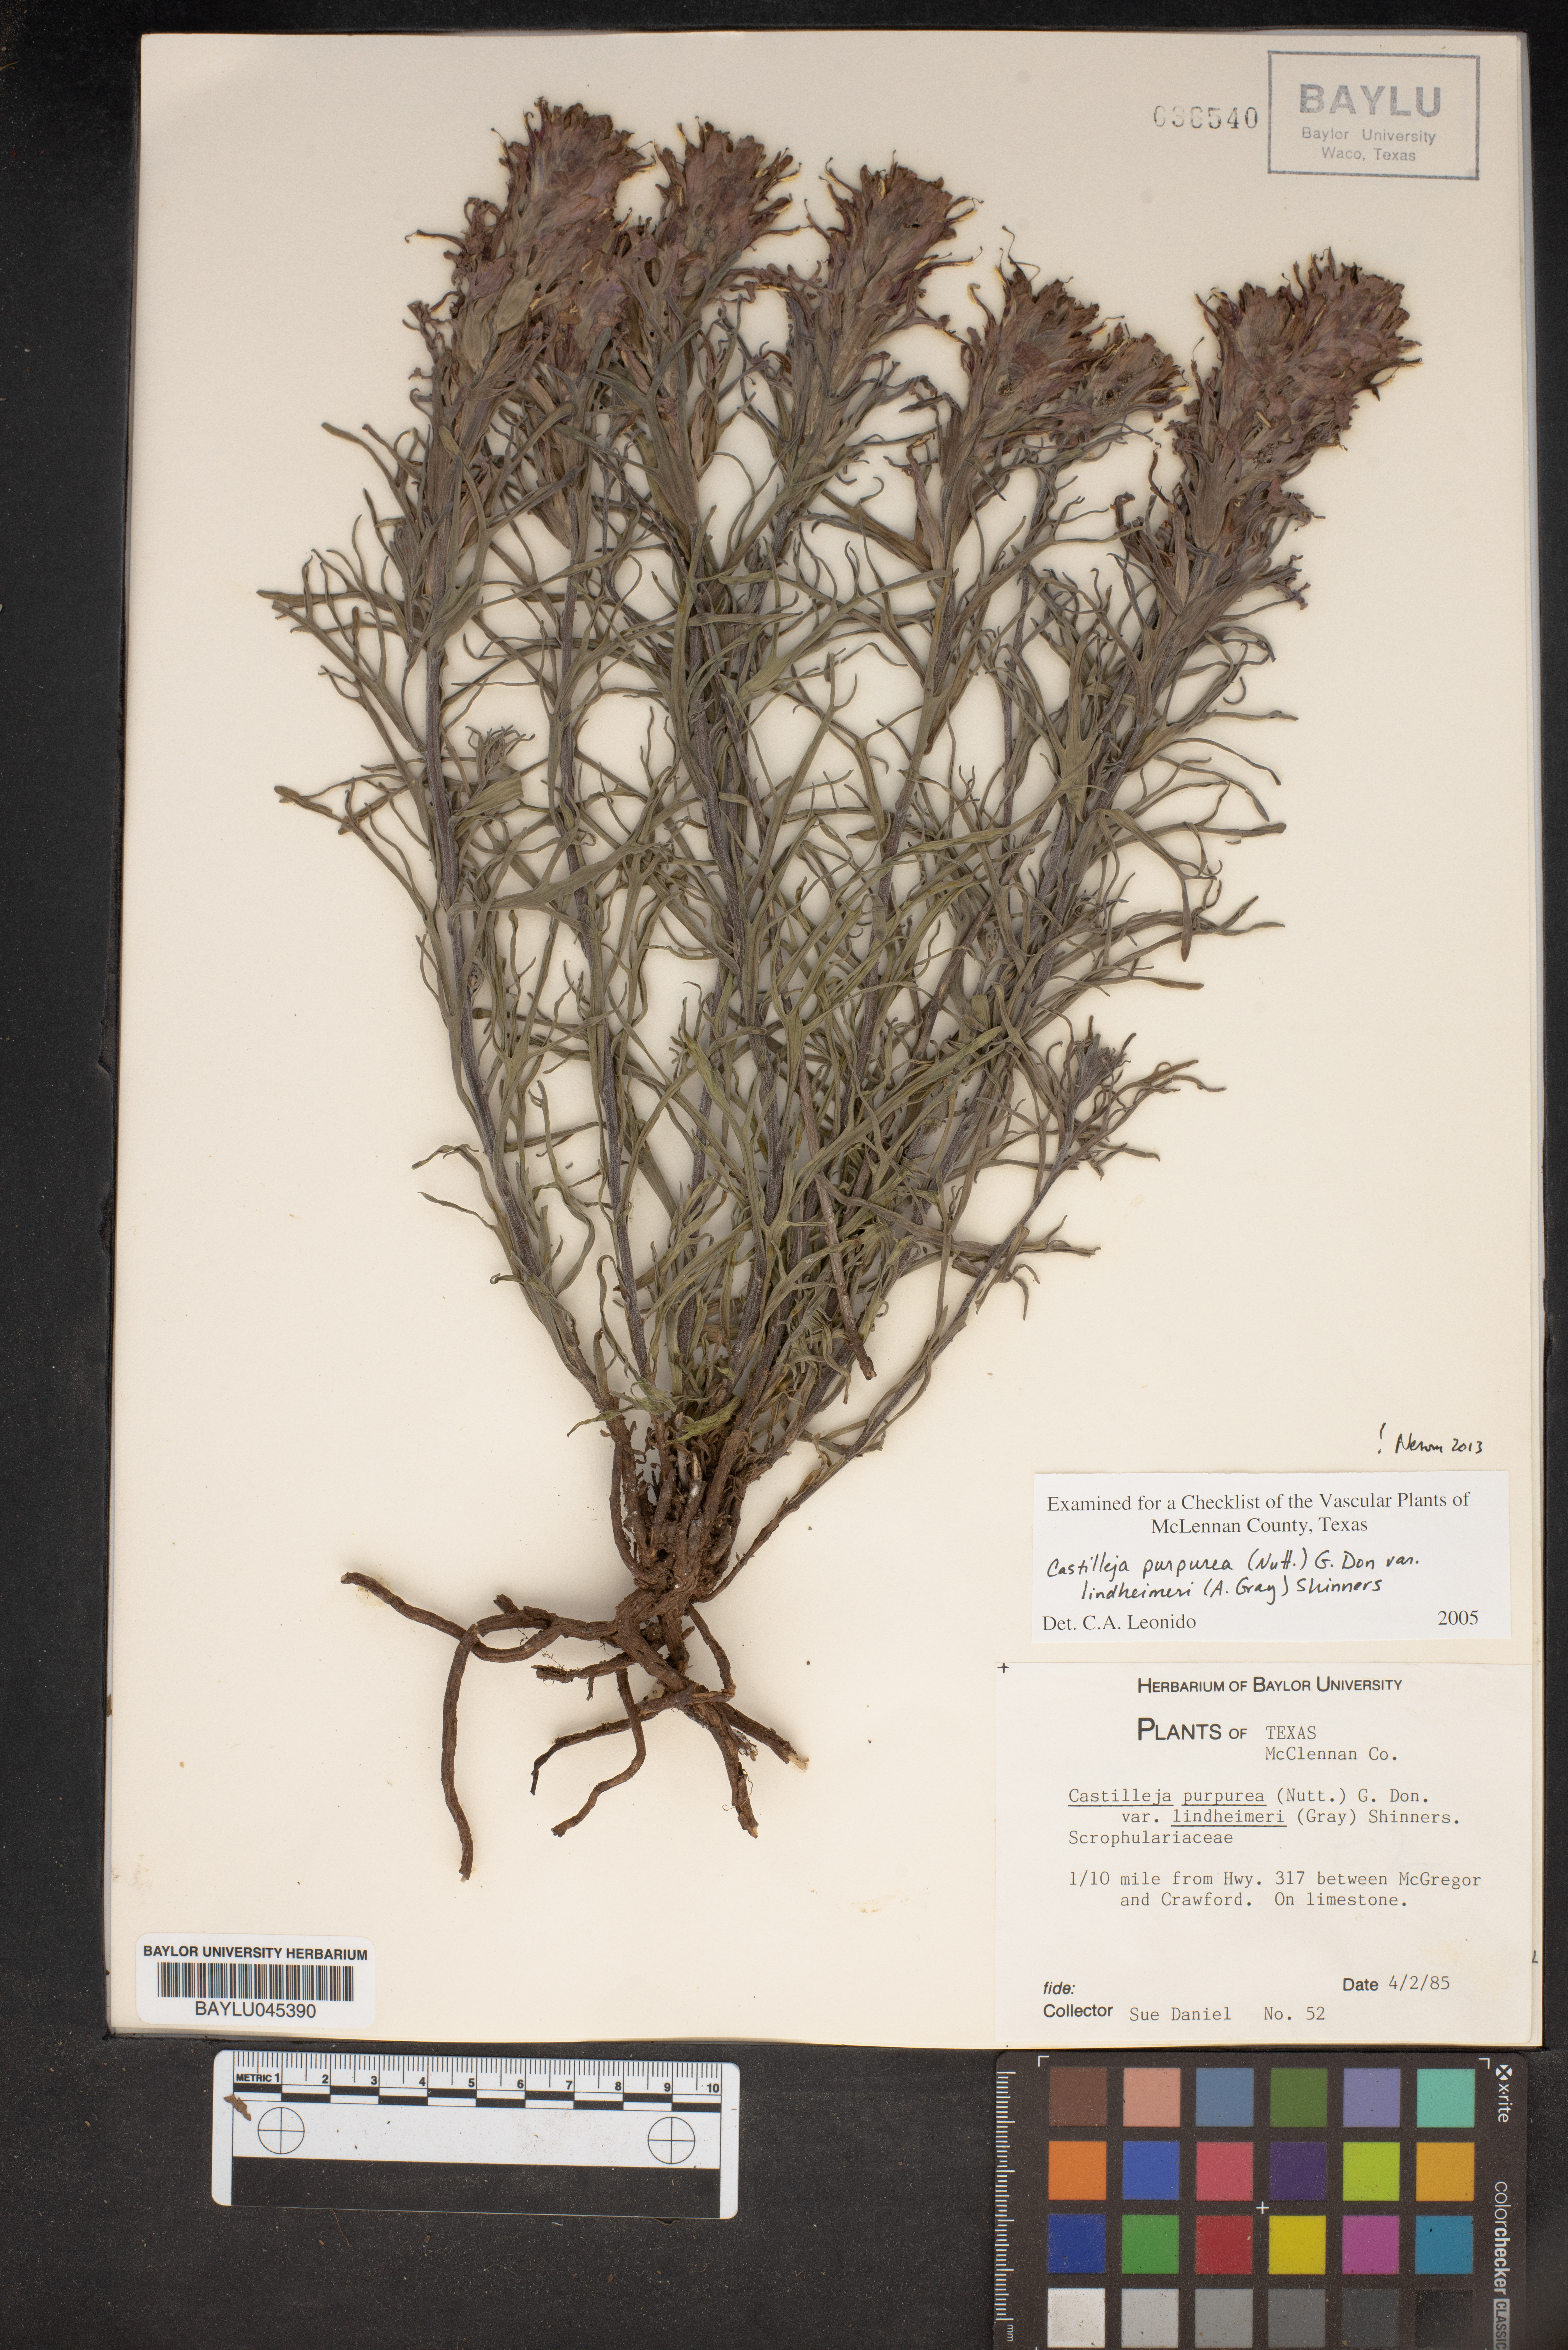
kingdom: Plantae
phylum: Tracheophyta
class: Magnoliopsida
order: Lamiales
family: Orobanchaceae
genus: Castilleja
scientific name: Castilleja purpurea
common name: Plains paintbrush
